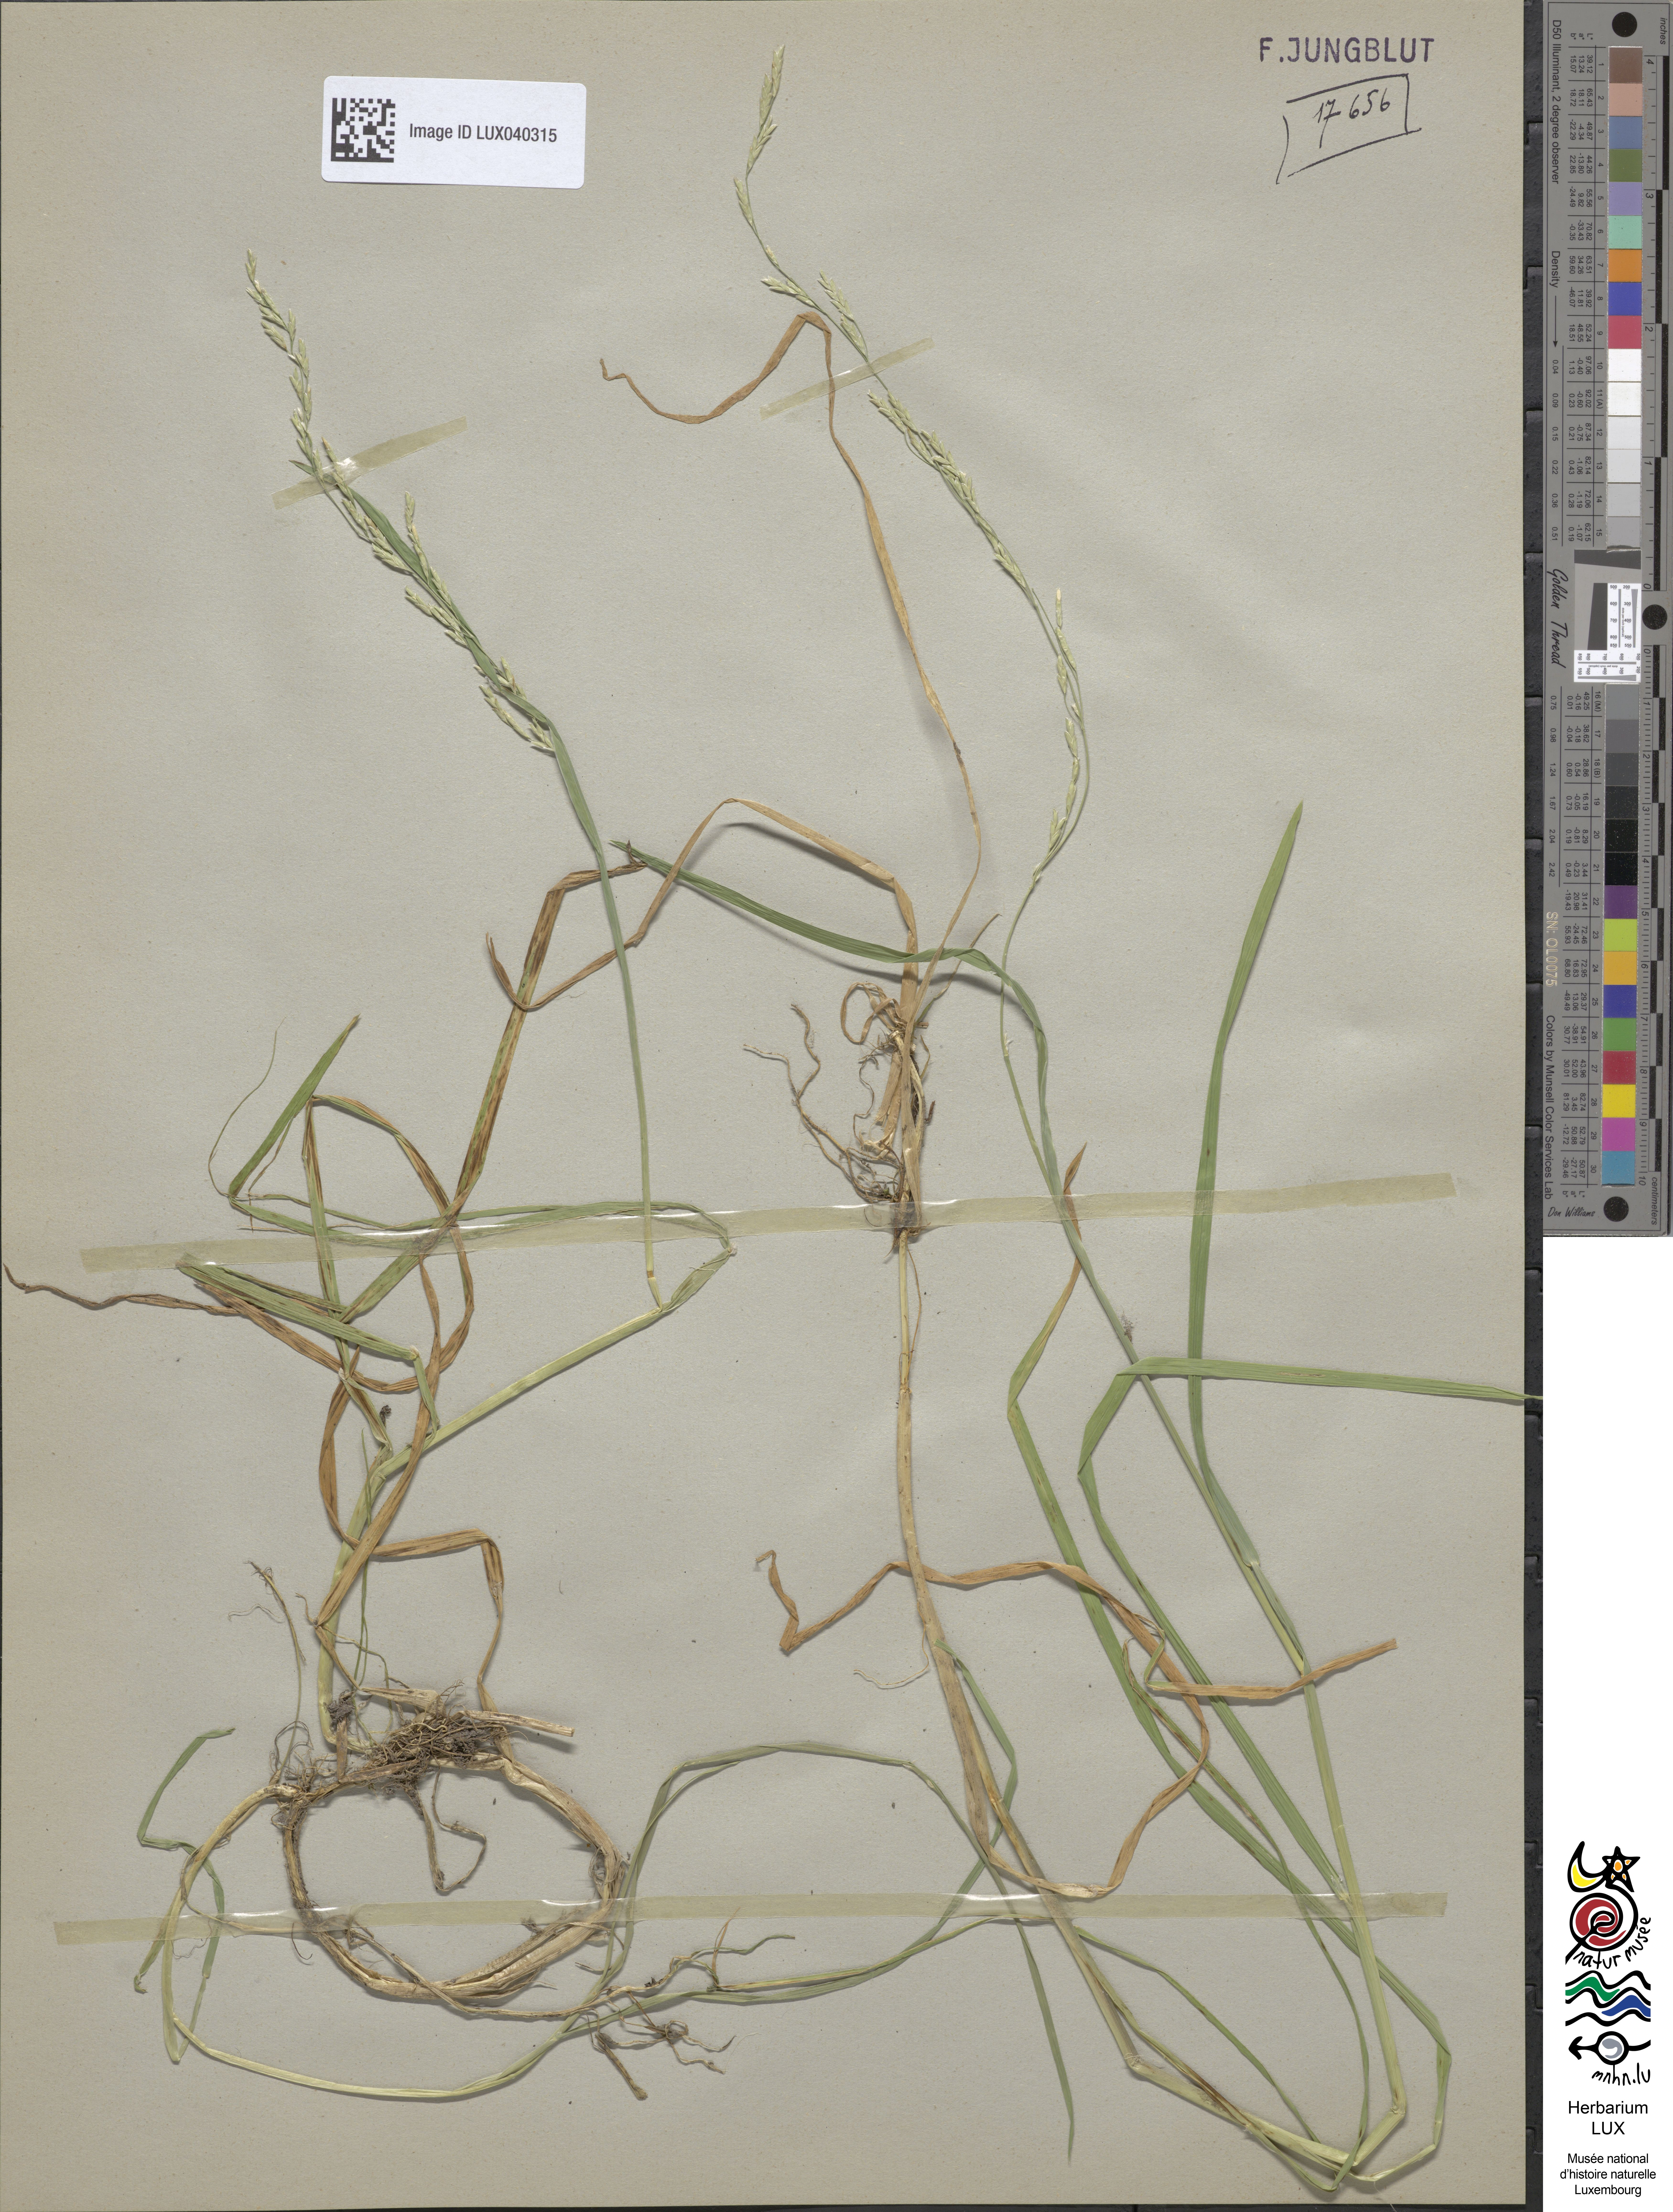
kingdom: Plantae
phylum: Tracheophyta
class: Liliopsida
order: Poales
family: Poaceae
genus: Glyceria
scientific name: Glyceria notata
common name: Plicate sweet-grass
